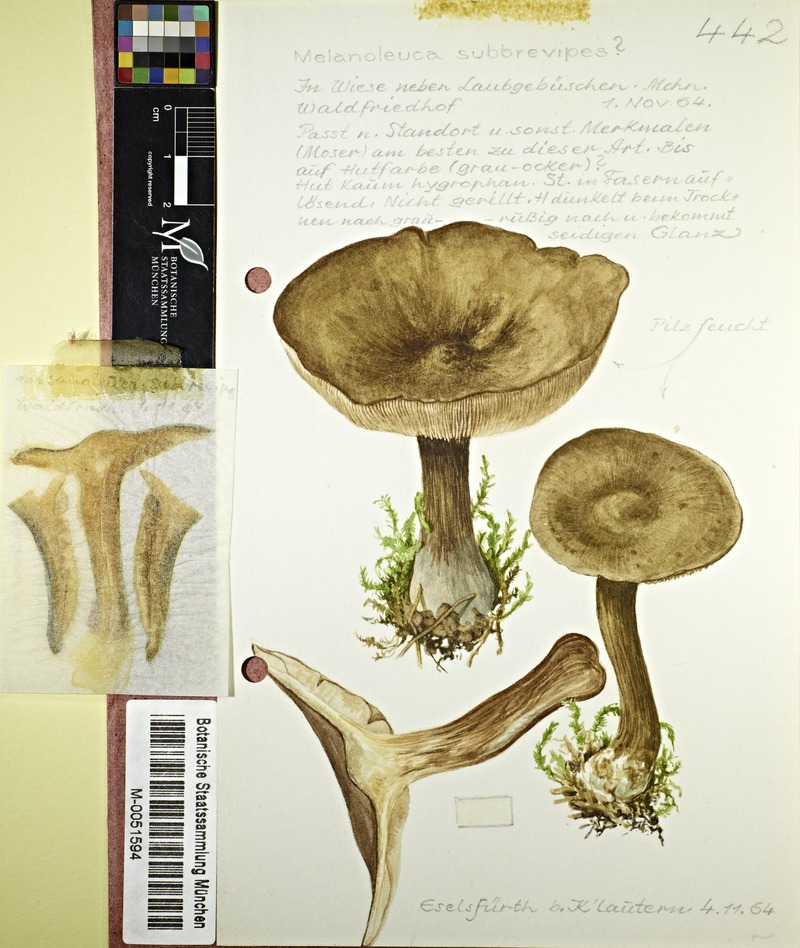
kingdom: Fungi
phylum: Basidiomycota
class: Agaricomycetes
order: Agaricales
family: Tricholomataceae
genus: Melanoleuca
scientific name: Melanoleuca grammopodia
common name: Grooved cavalier
